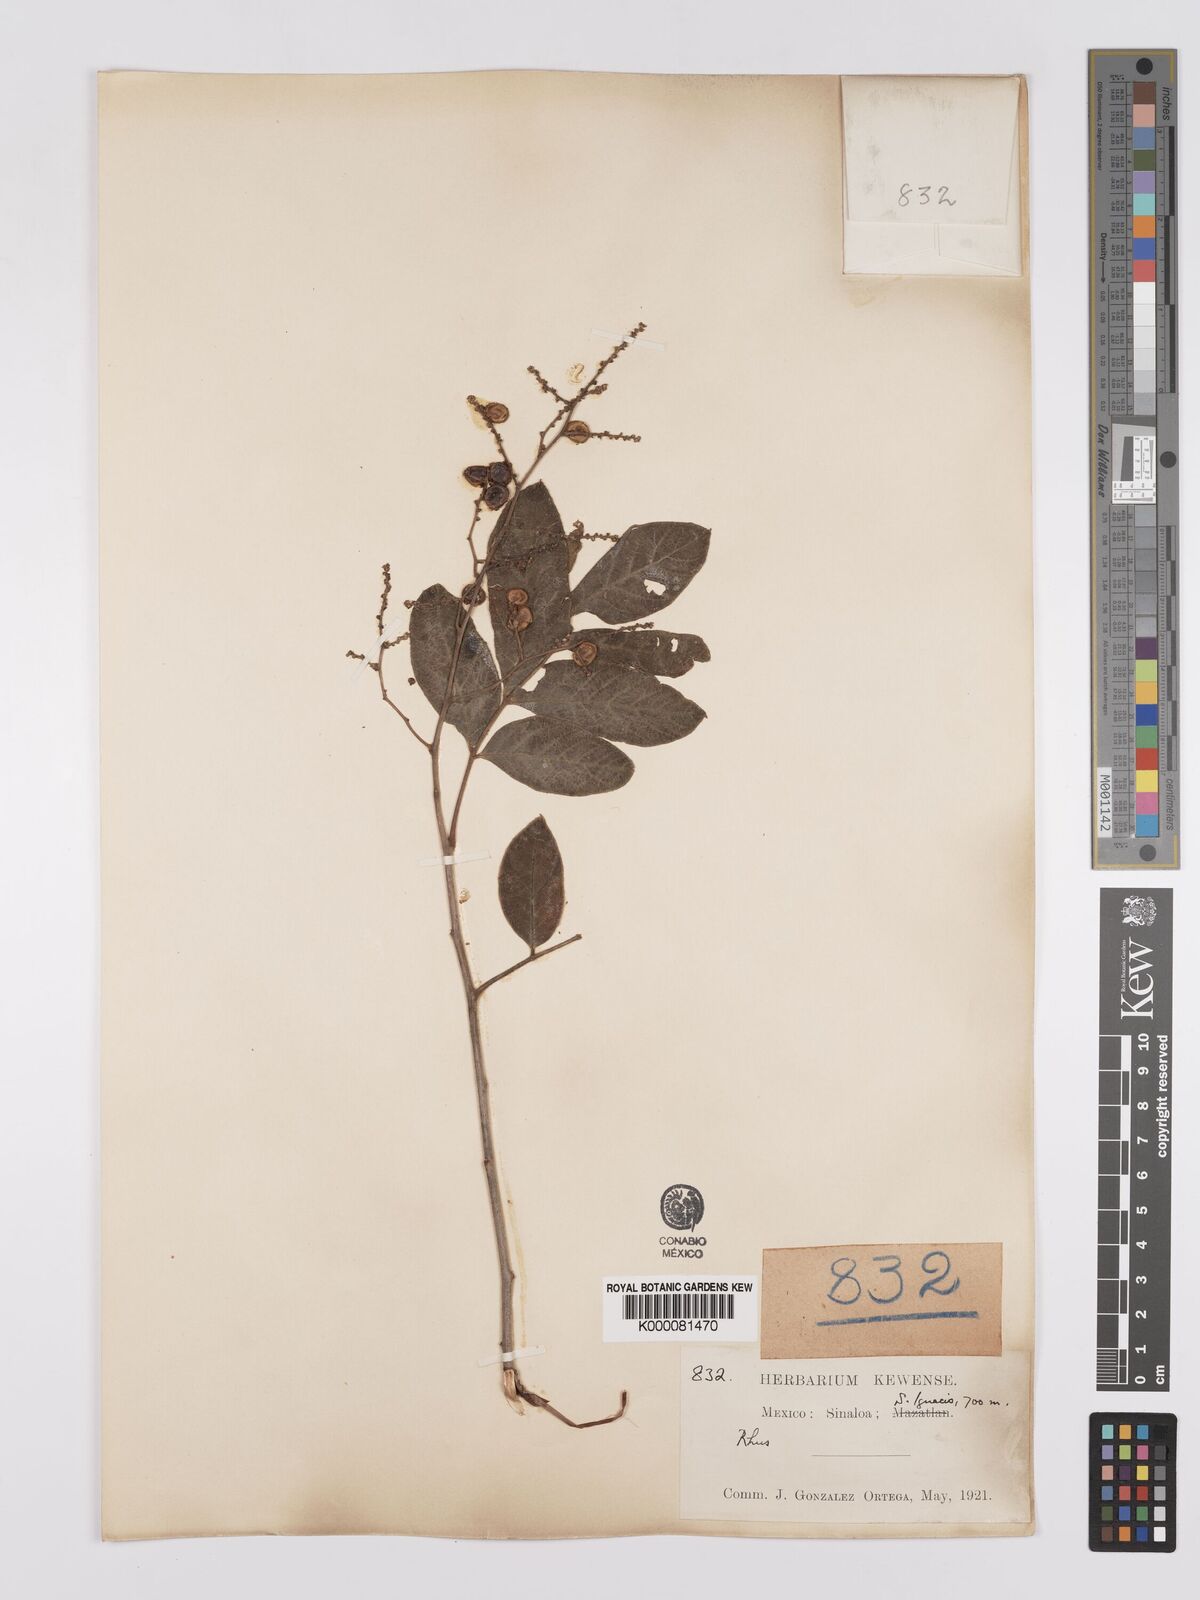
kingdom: Plantae
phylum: Tracheophyta
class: Magnoliopsida
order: Sapindales
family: Anacardiaceae
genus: Rhus
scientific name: Rhus
